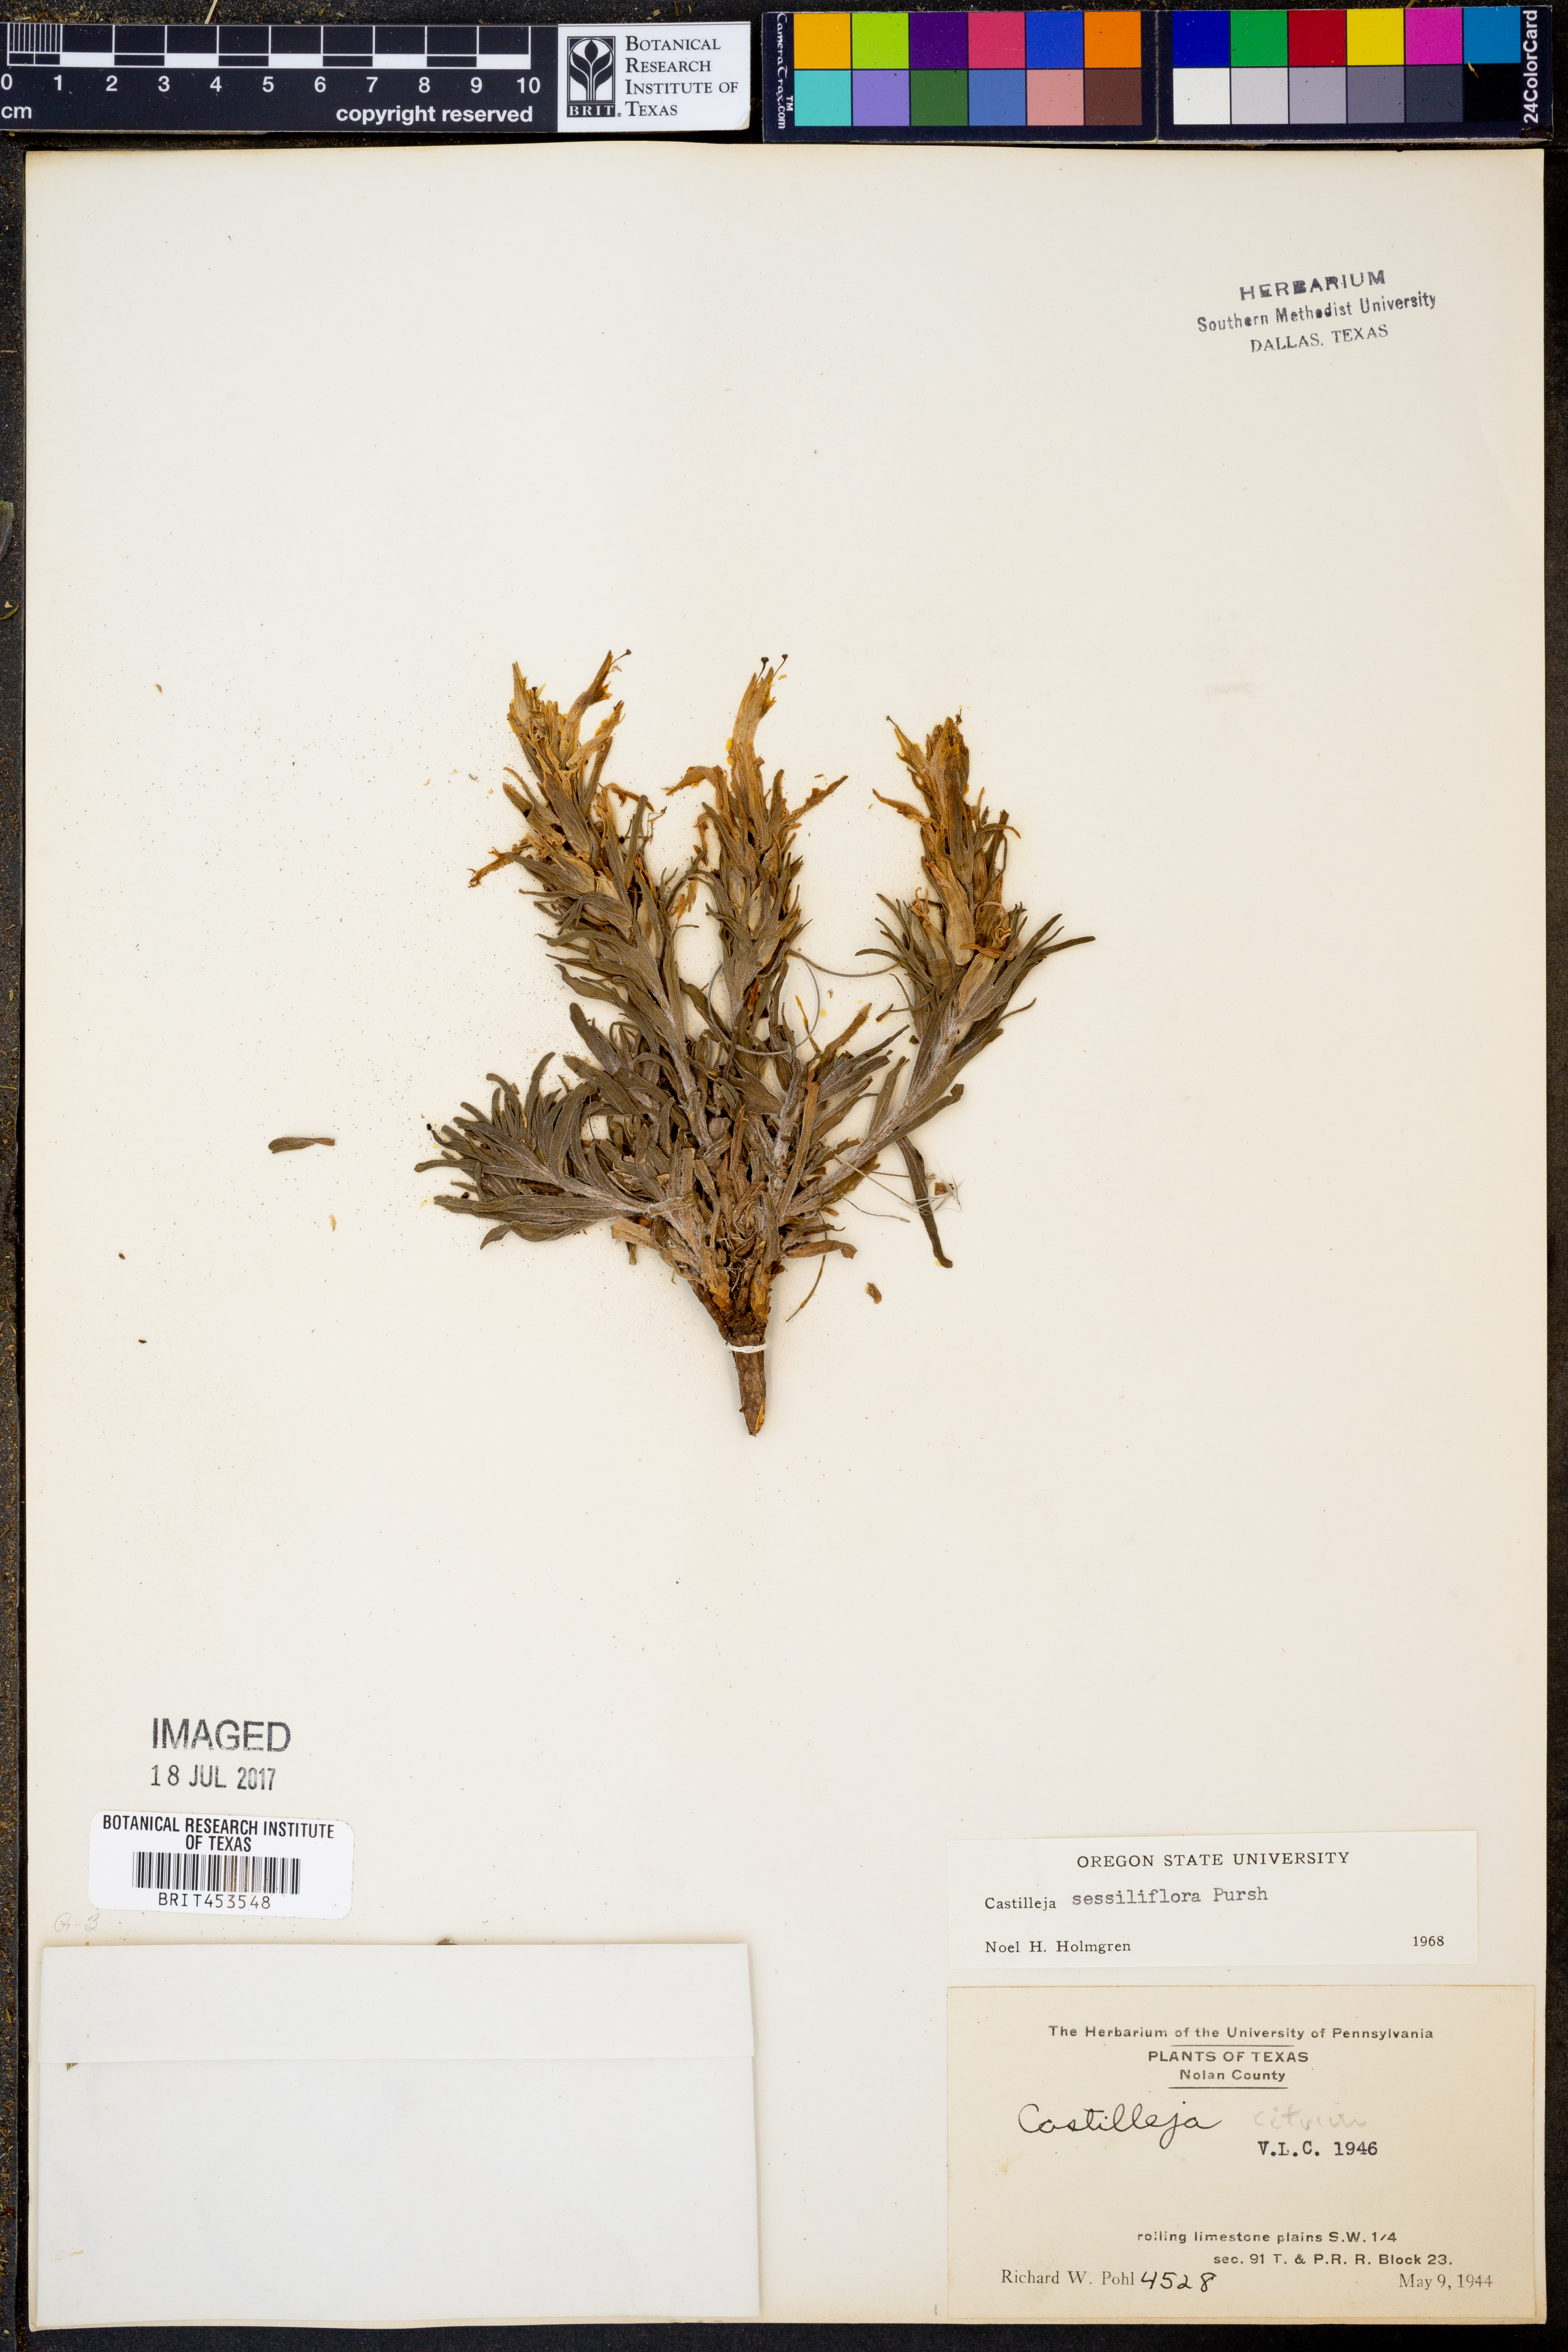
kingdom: Plantae
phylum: Tracheophyta
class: Magnoliopsida
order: Lamiales
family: Orobanchaceae
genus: Castilleja
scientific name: Castilleja sessiliflora
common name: Downy paintbrush
